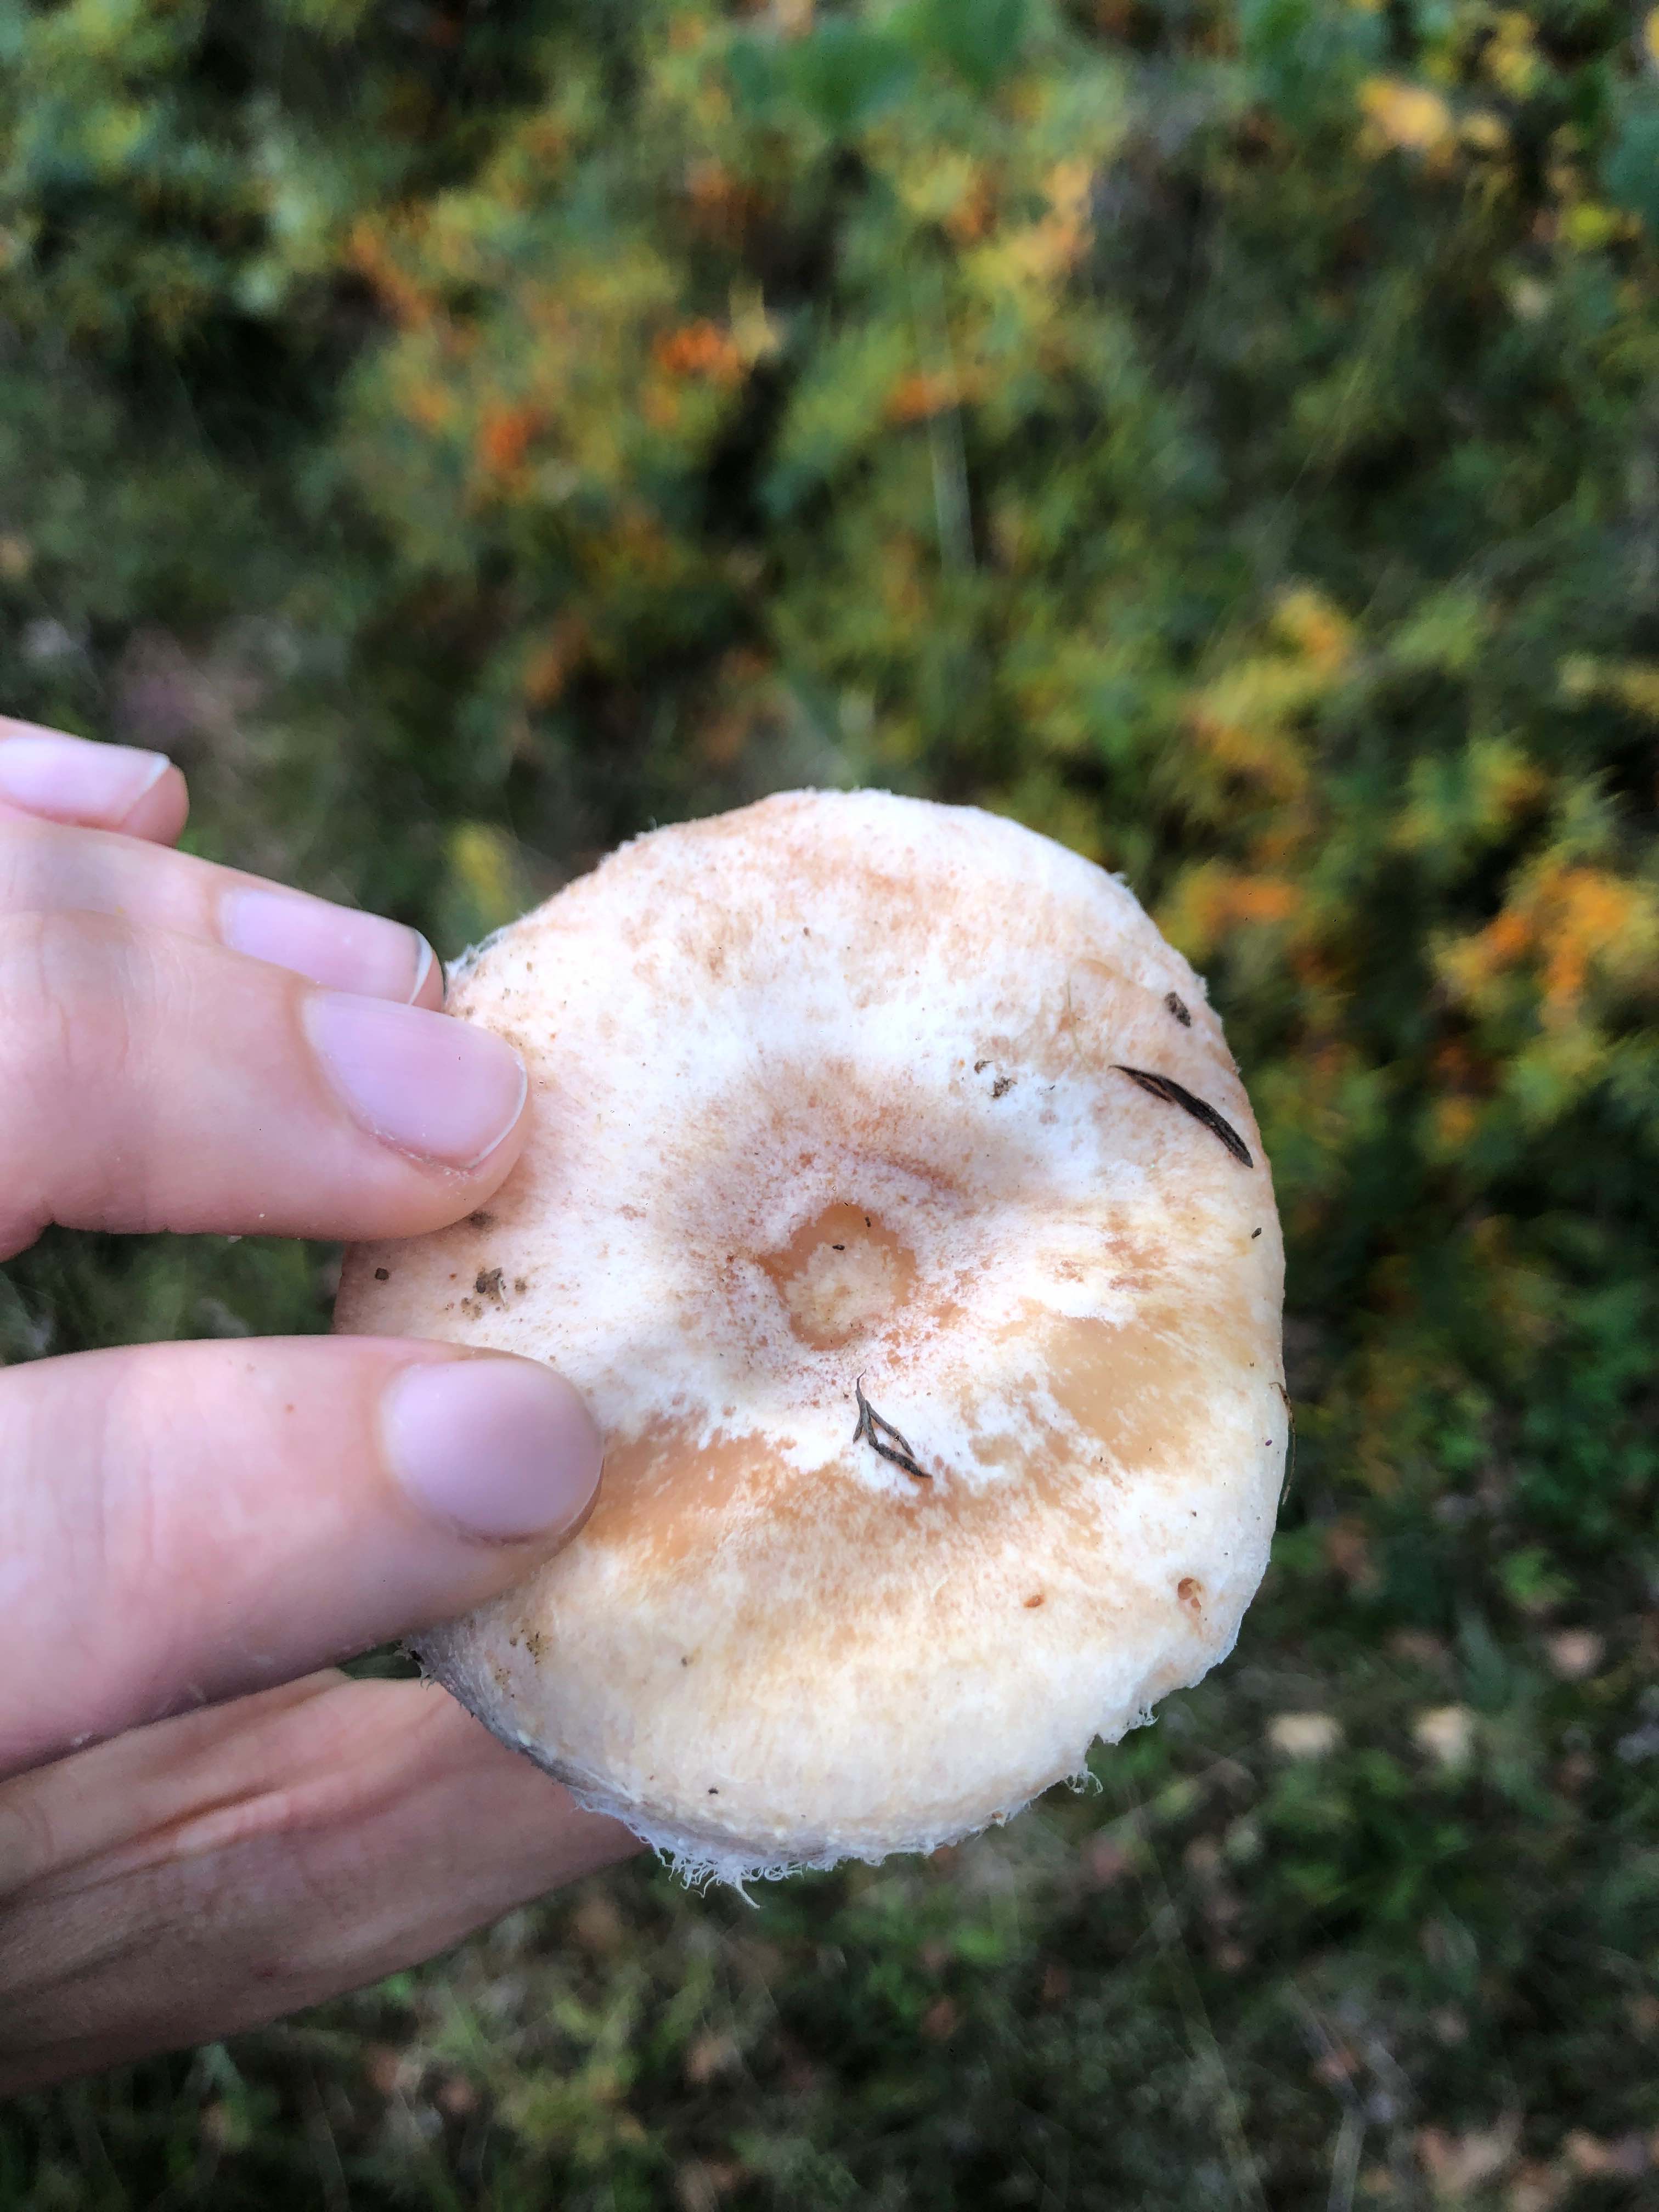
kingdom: Fungi
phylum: Basidiomycota
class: Agaricomycetes
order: Russulales
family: Russulaceae
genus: Lactarius
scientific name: Lactarius pubescens
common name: dunet mælkehat
